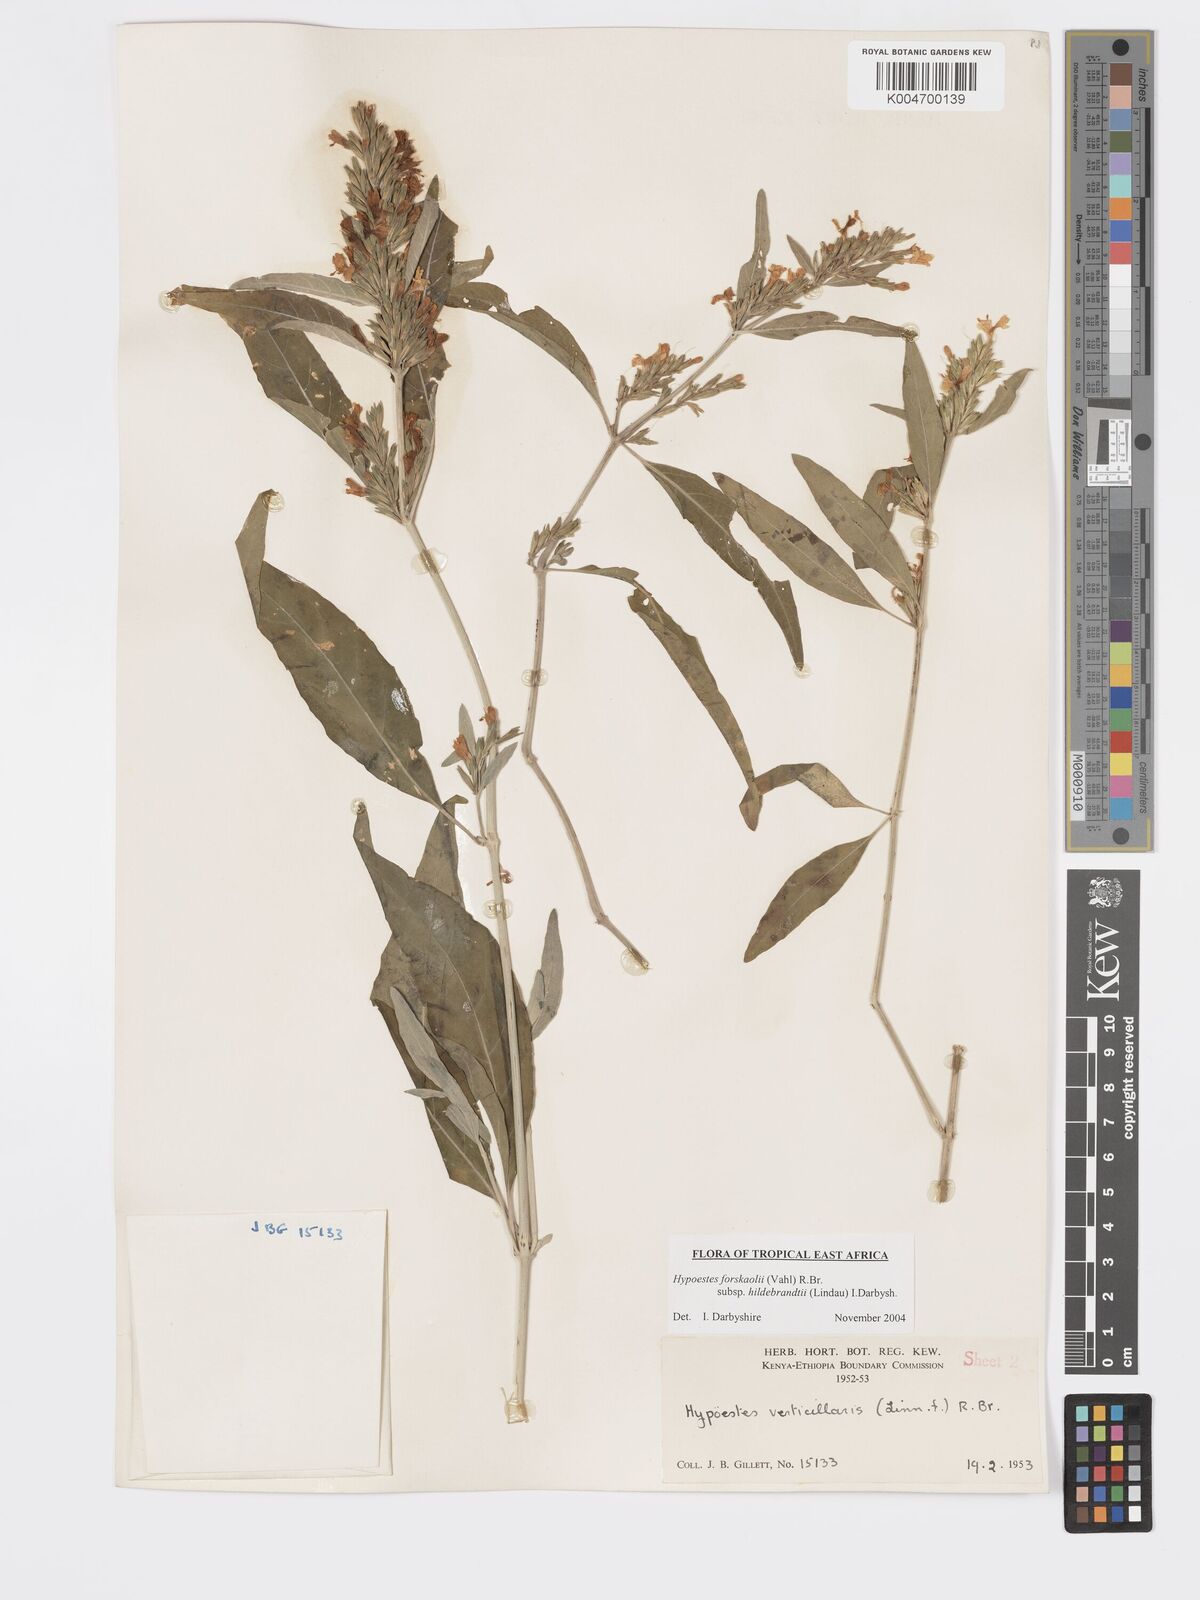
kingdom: Plantae
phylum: Tracheophyta
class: Magnoliopsida
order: Lamiales
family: Acanthaceae
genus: Hypoestes
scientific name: Hypoestes forskaolii
